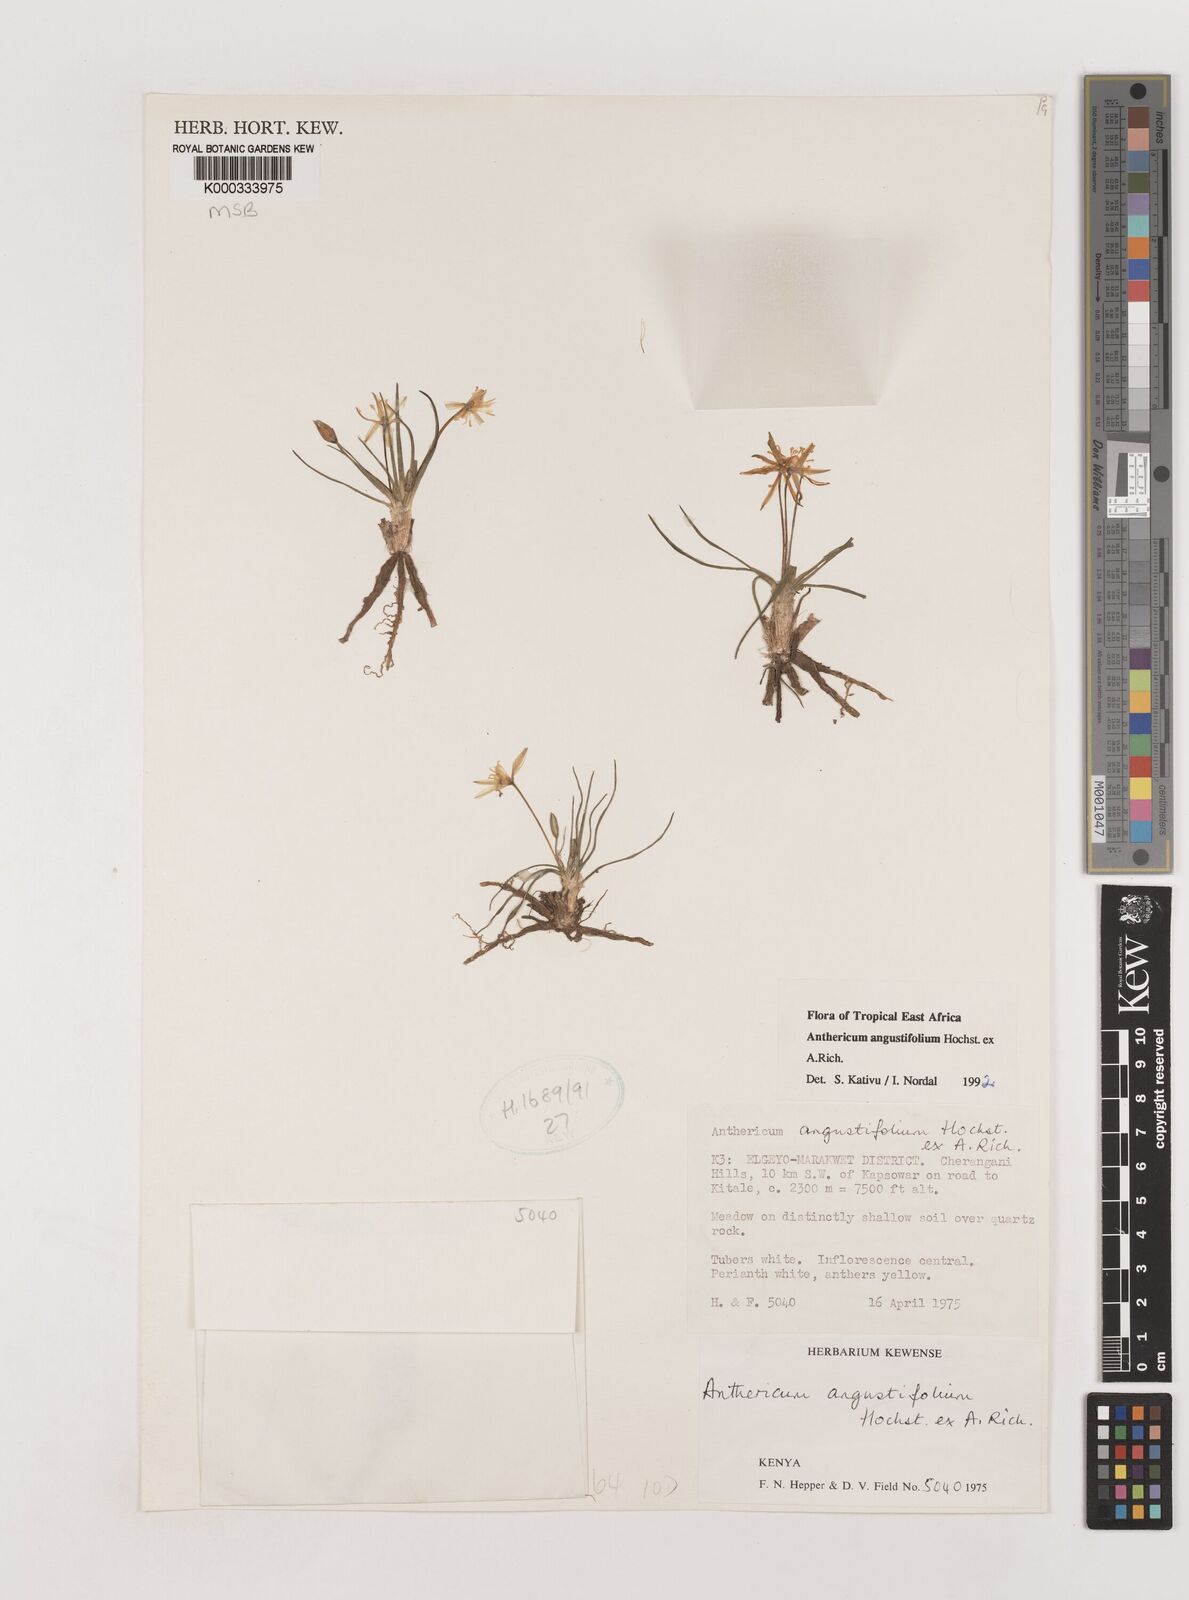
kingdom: Plantae
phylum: Tracheophyta
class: Liliopsida
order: Asparagales
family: Asparagaceae
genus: Anthericum
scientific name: Anthericum angustifolium
